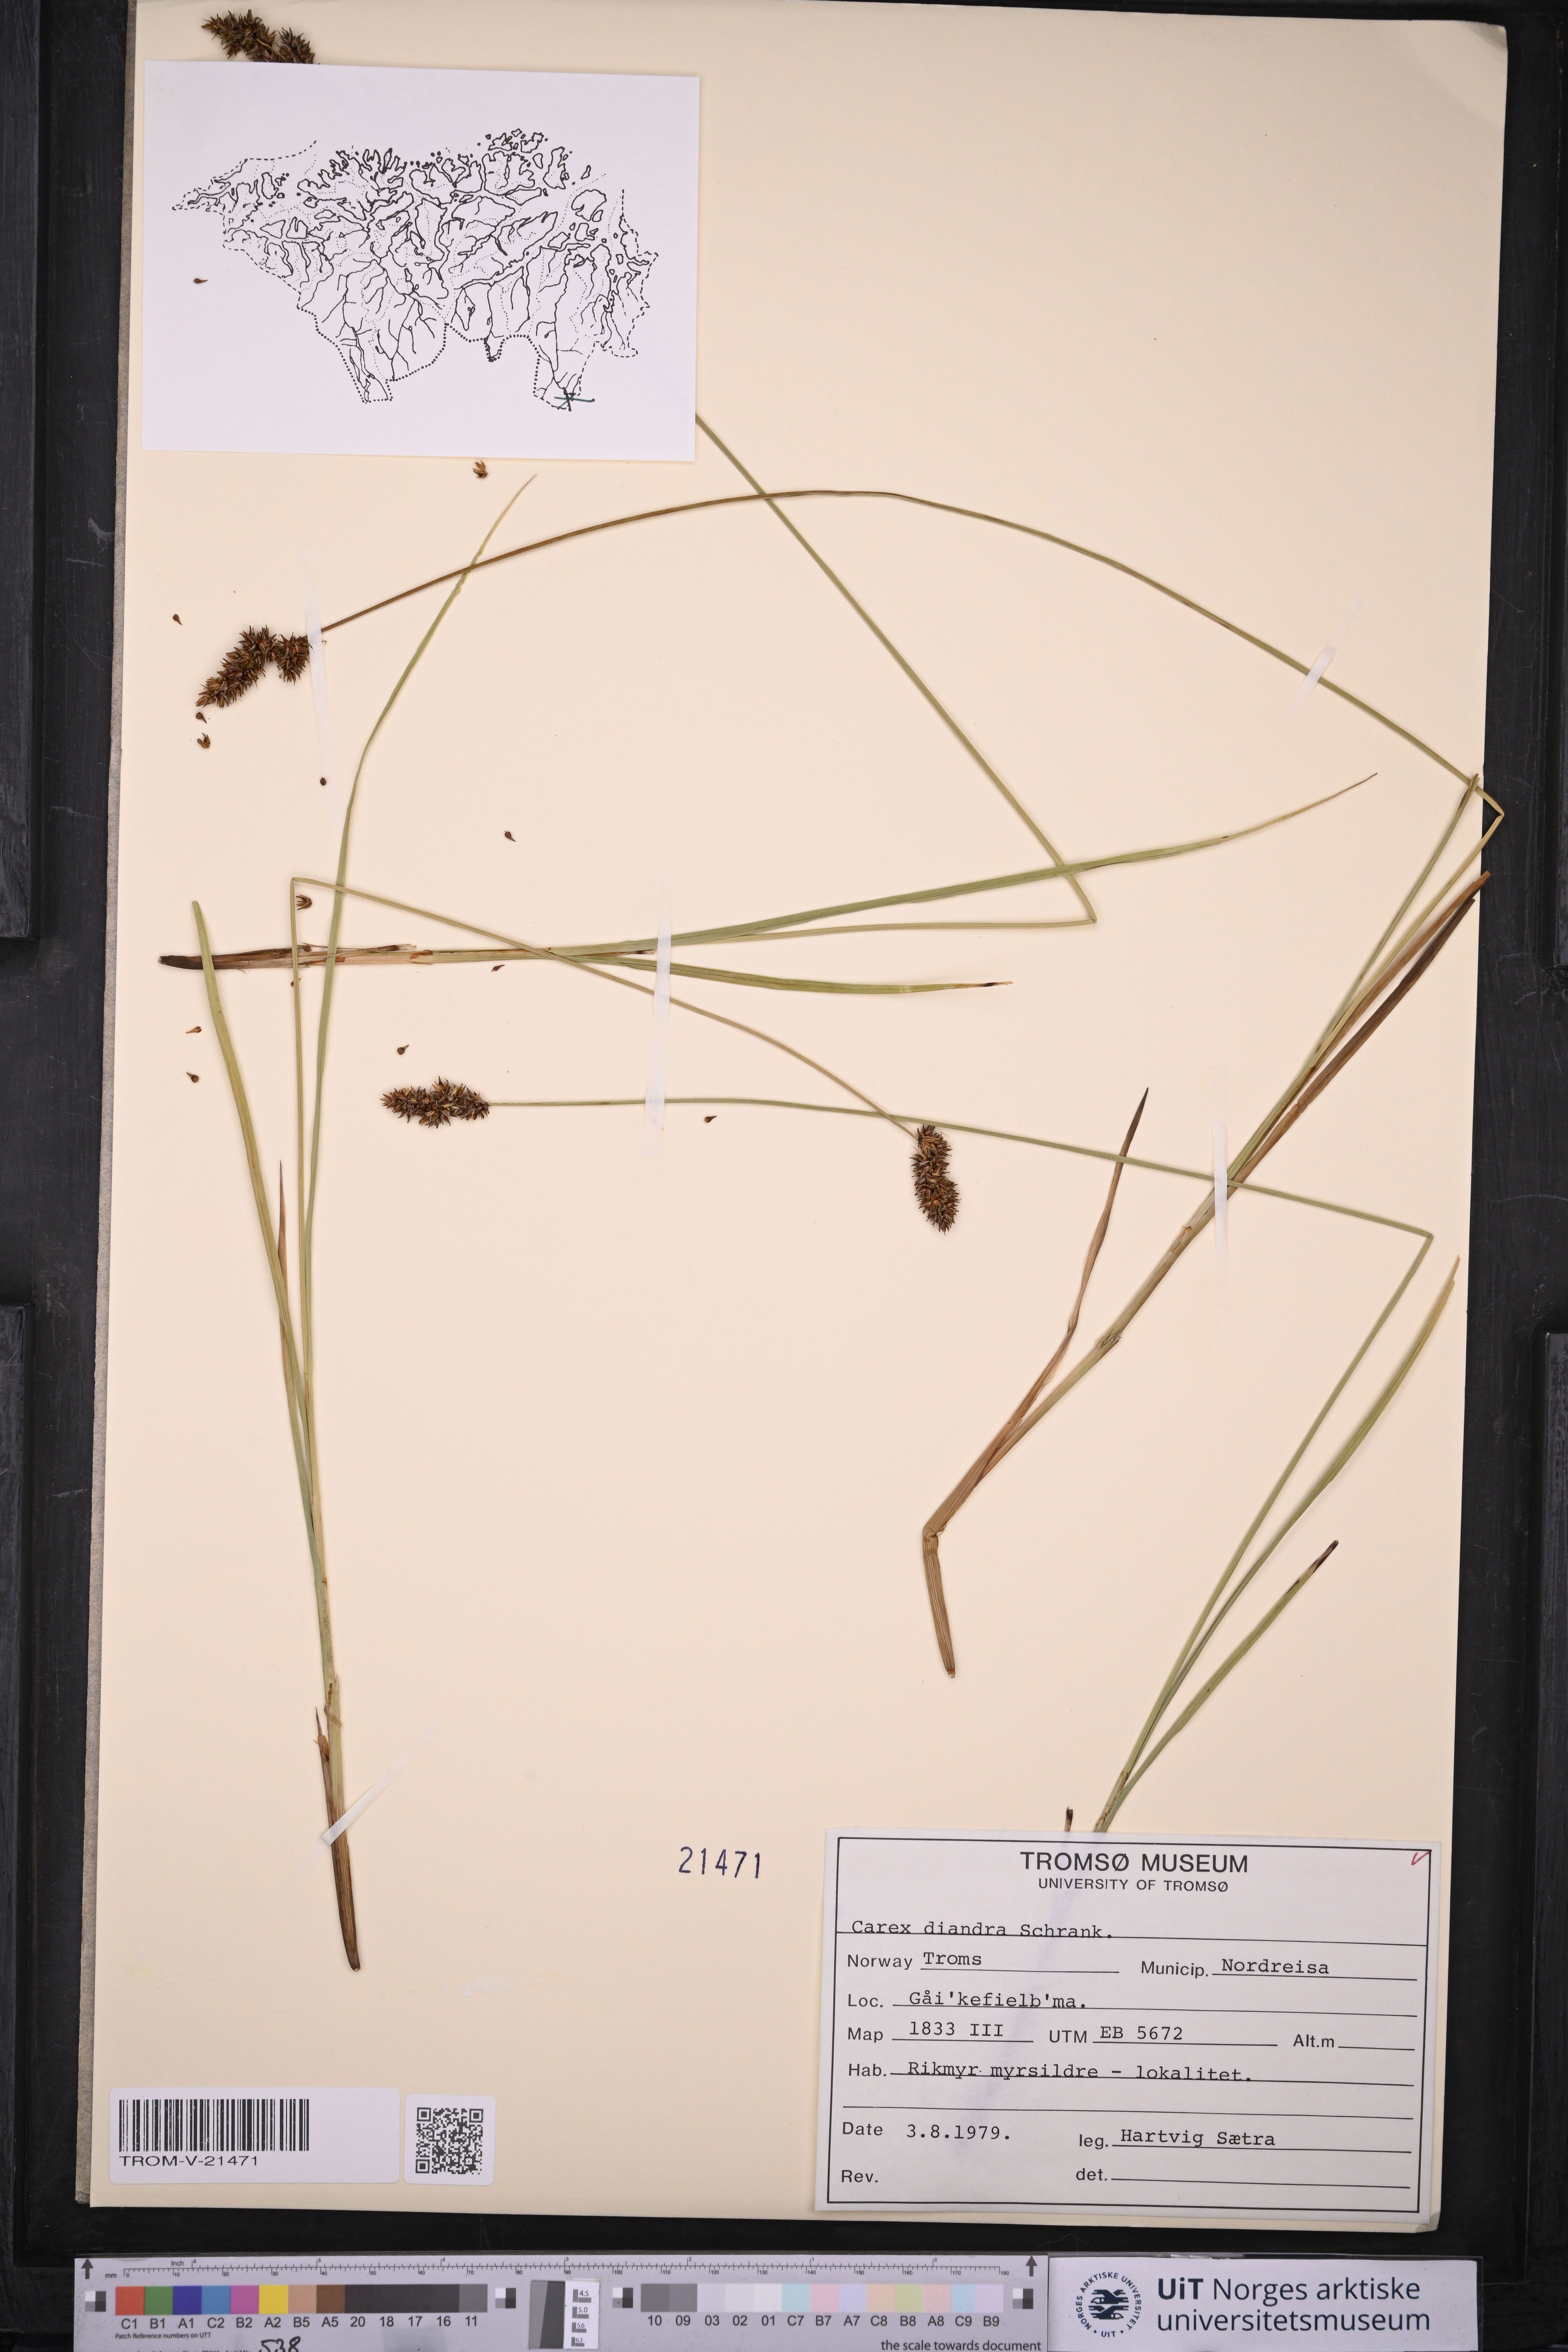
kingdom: Plantae
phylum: Tracheophyta
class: Liliopsida
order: Poales
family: Cyperaceae
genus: Carex
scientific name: Carex diandra
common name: Lesser tussock-sedge
